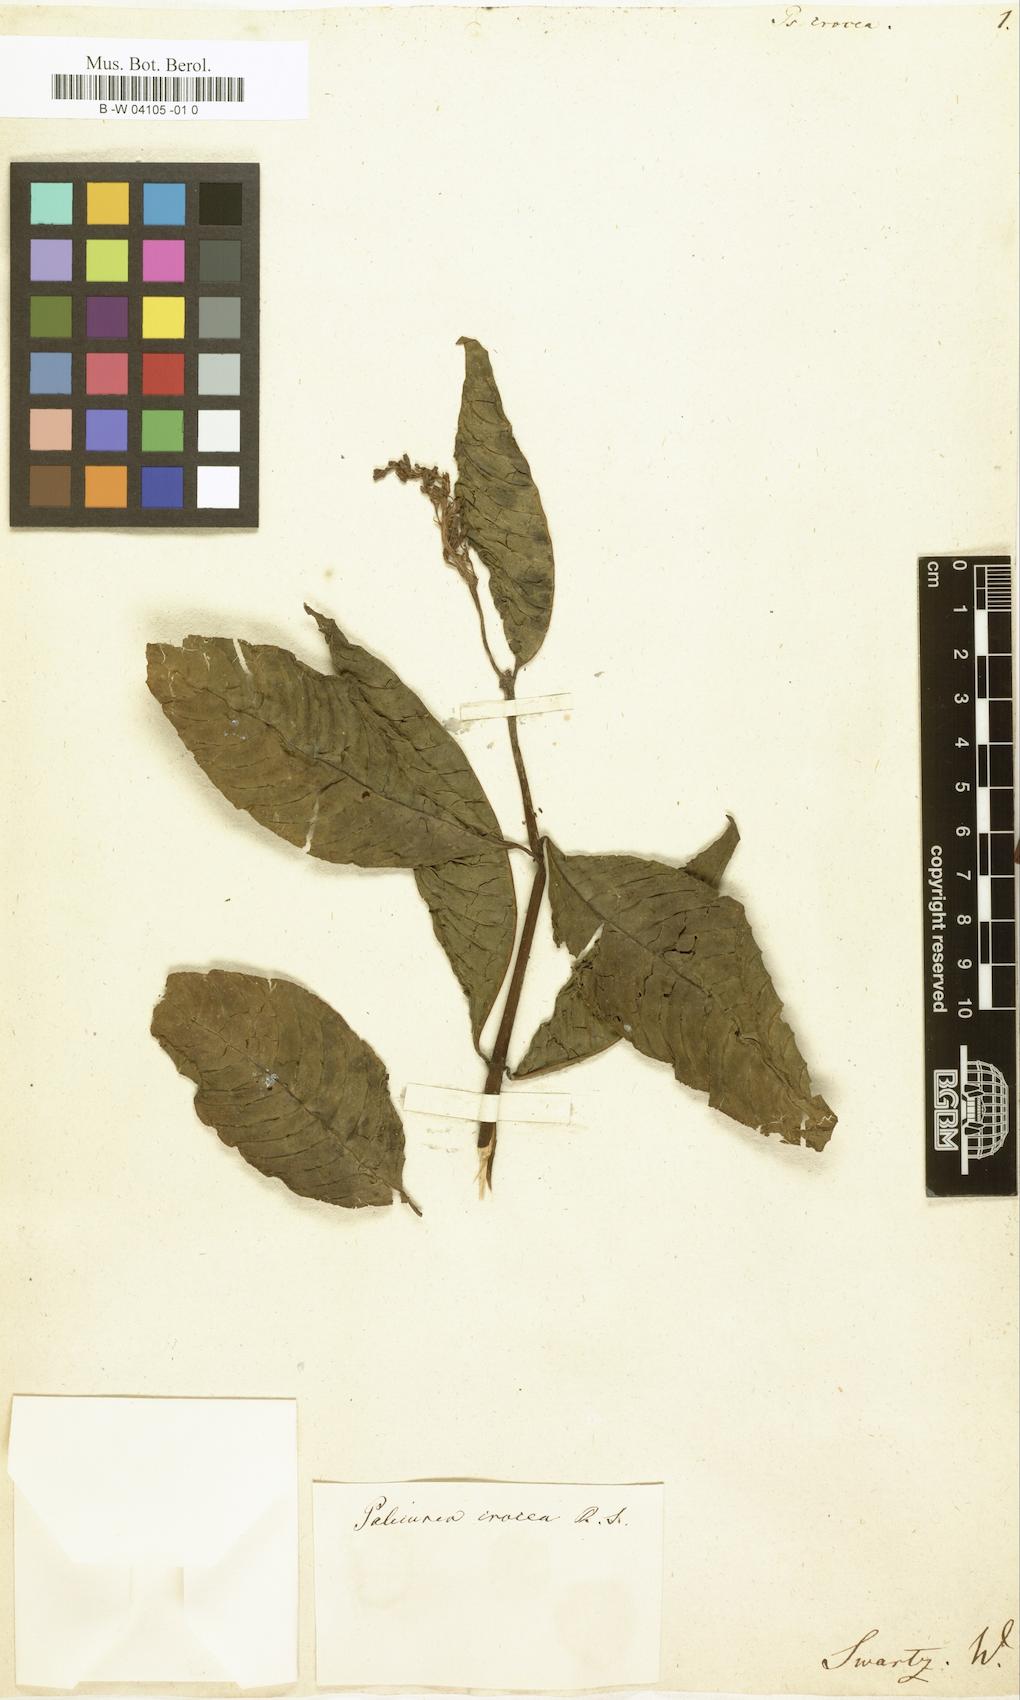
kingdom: Plantae
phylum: Tracheophyta
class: Magnoliopsida
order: Gentianales
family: Rubiaceae
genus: Psychotria
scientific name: Psychotria crocea
